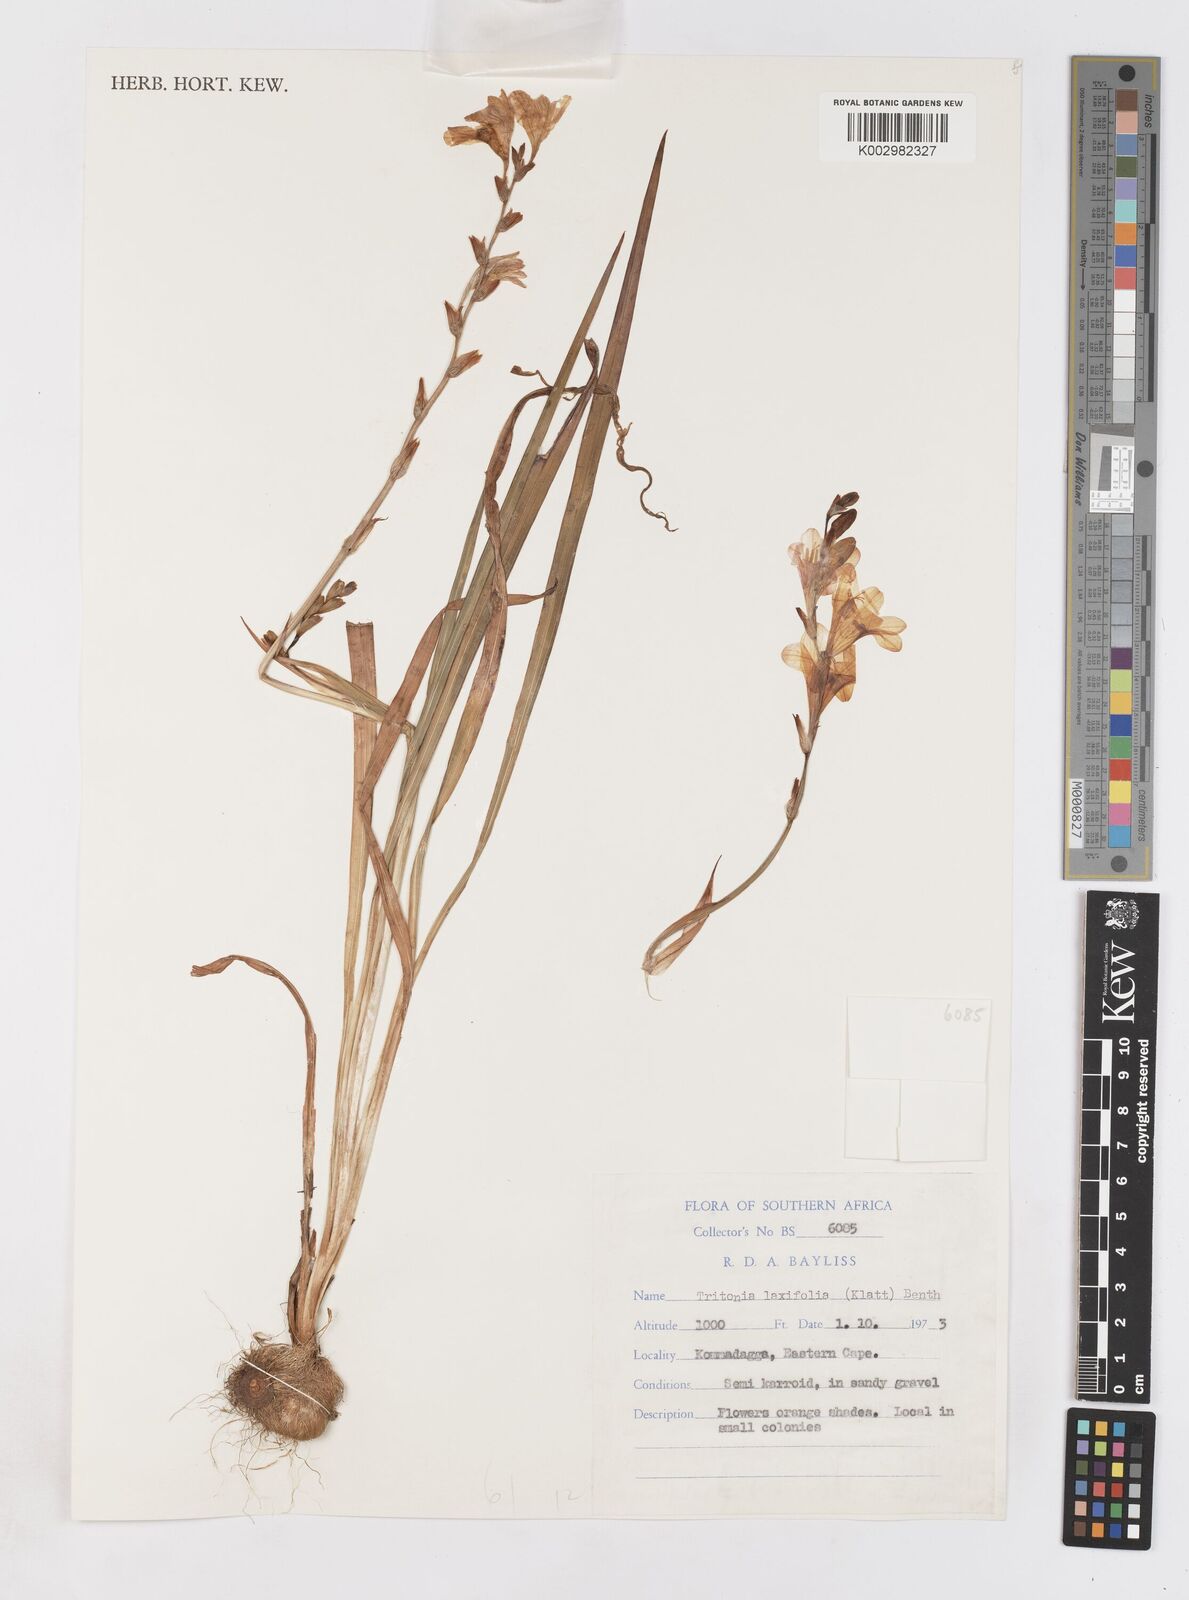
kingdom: Plantae
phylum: Tracheophyta
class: Liliopsida
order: Asparagales
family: Iridaceae
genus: Tritonia
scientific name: Tritonia laxifolia
